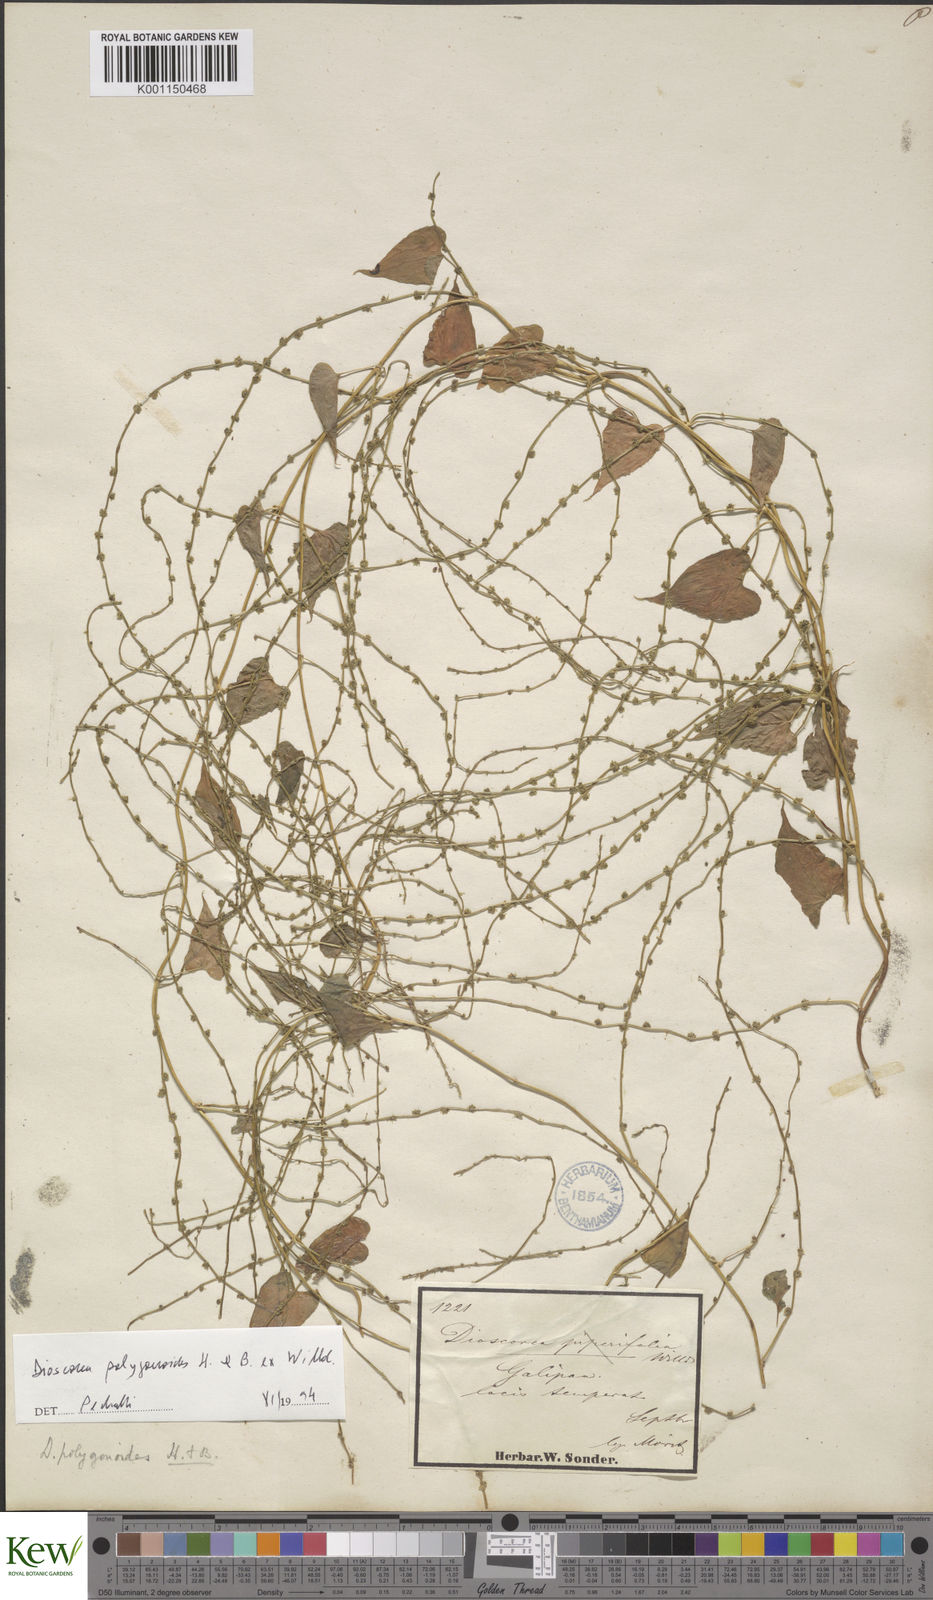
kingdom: Plantae
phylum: Tracheophyta
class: Liliopsida
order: Dioscoreales
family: Dioscoreaceae
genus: Dioscorea
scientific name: Dioscorea polygonoides
